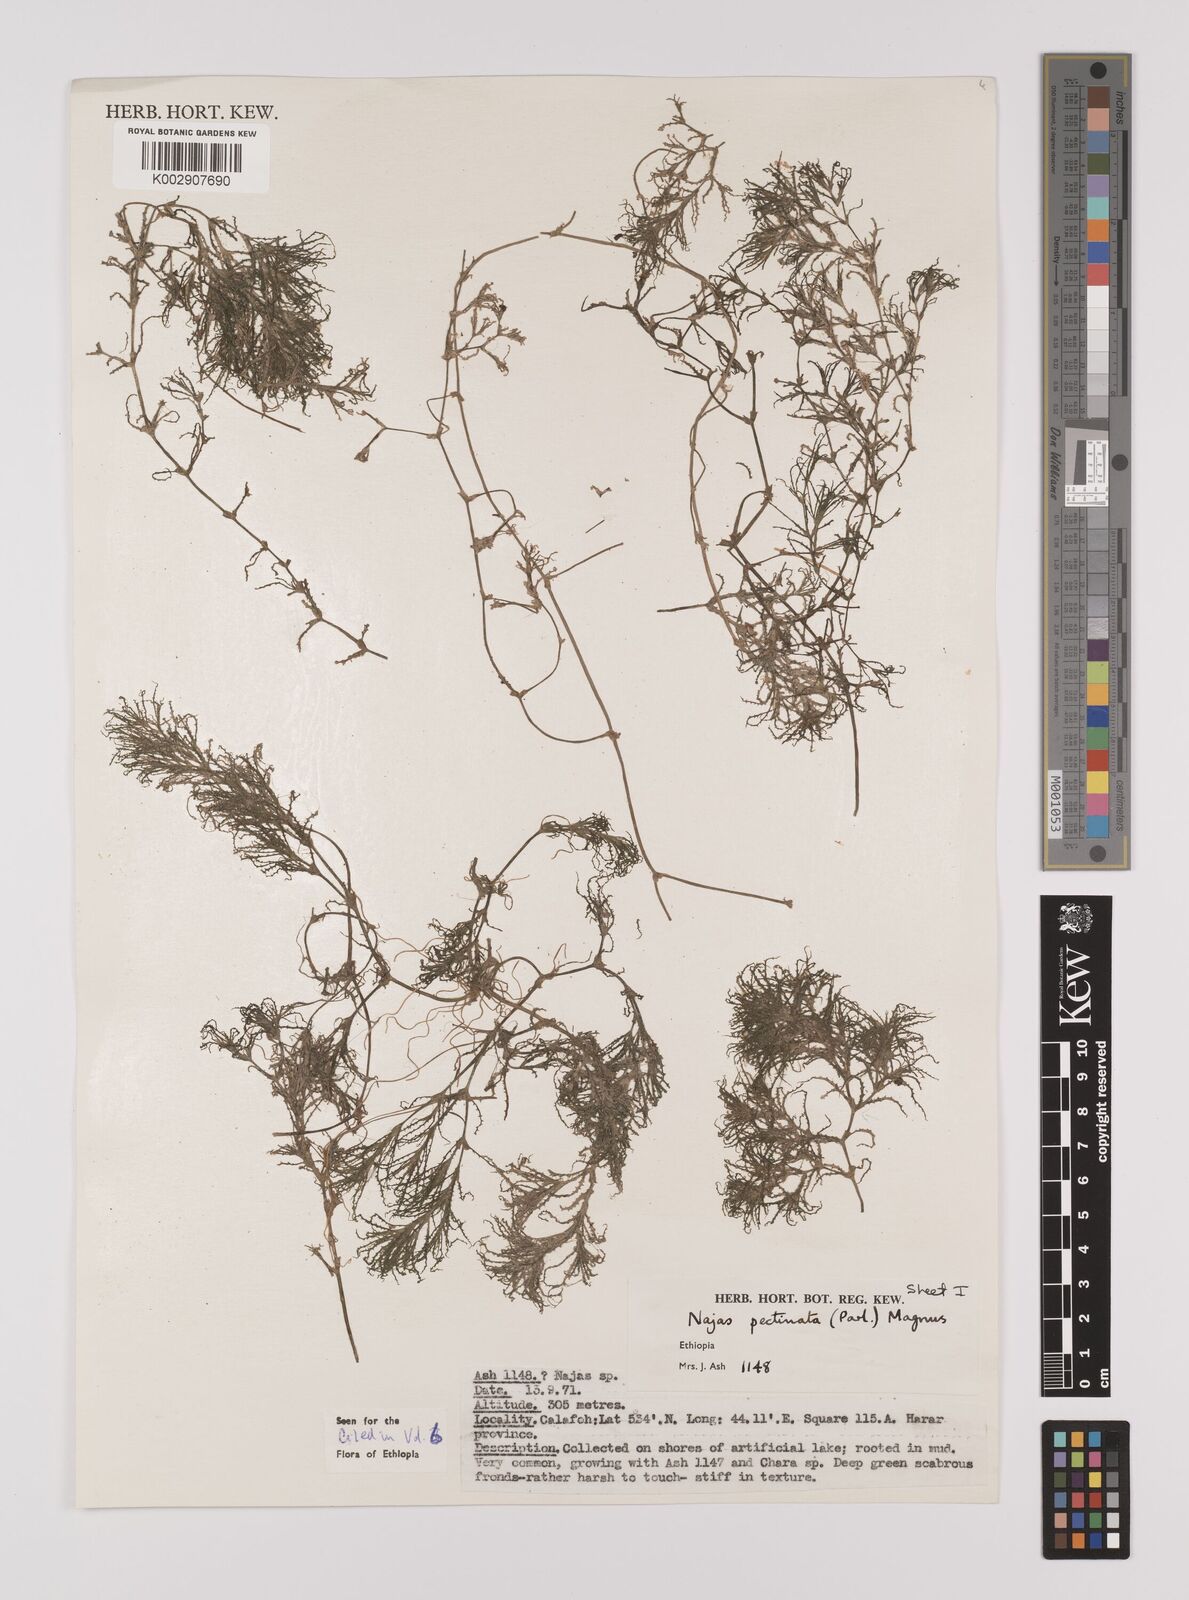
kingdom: Plantae
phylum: Tracheophyta
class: Liliopsida
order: Alismatales
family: Hydrocharitaceae
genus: Najas
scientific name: Najas horrida
